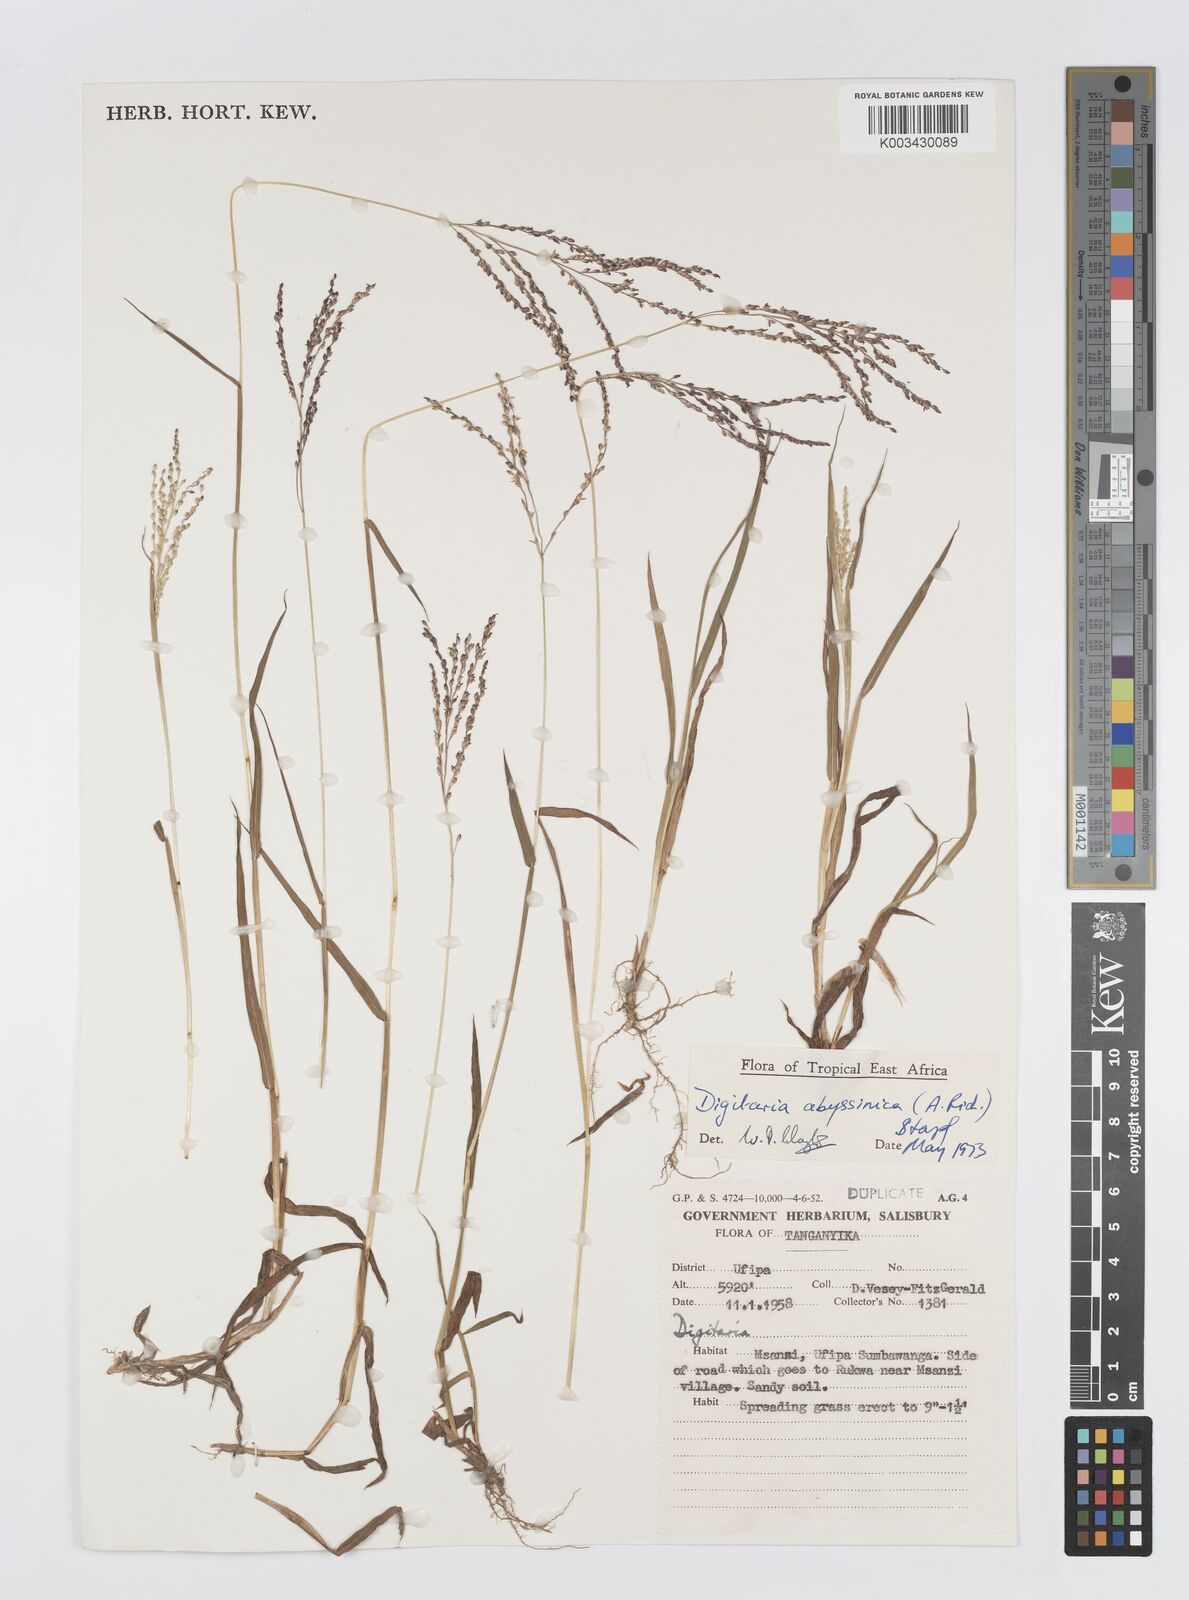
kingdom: Plantae
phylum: Tracheophyta
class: Liliopsida
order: Poales
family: Poaceae
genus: Digitaria
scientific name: Digitaria abyssinica
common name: African couchgrass
